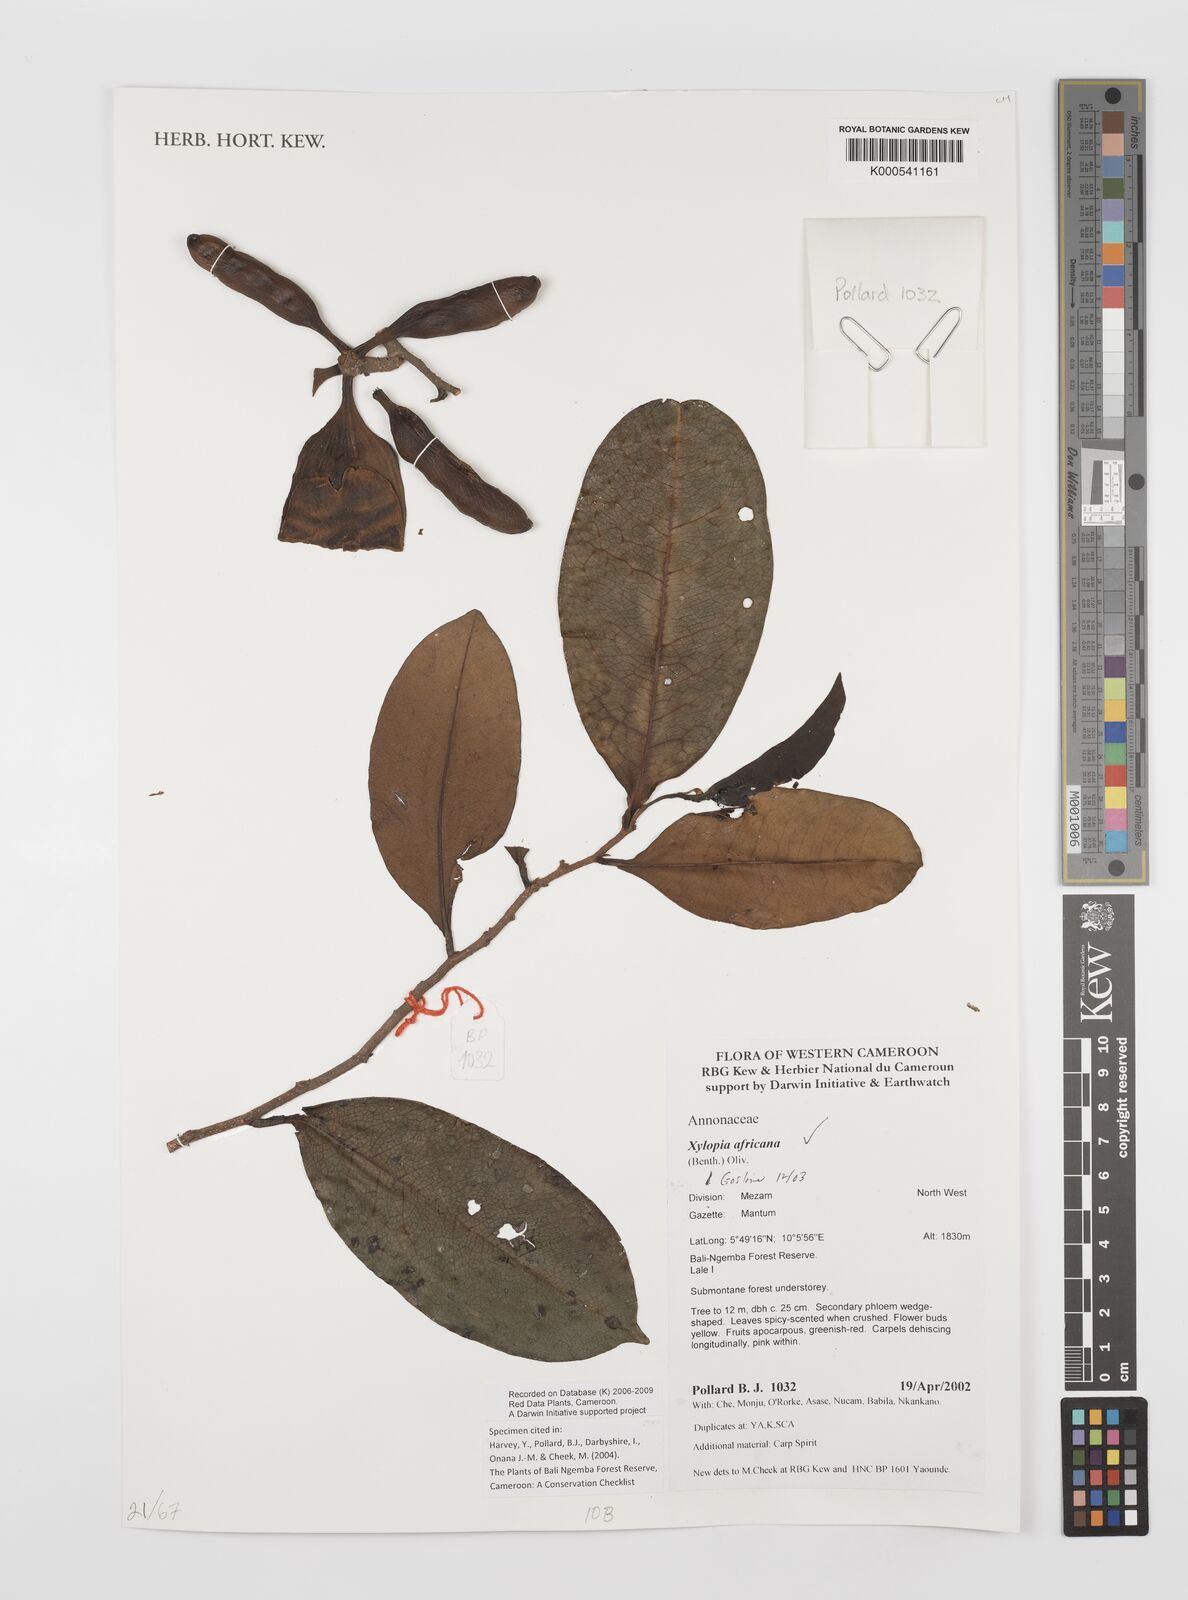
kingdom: Plantae
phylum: Tracheophyta
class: Magnoliopsida
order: Magnoliales
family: Annonaceae
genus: Xylopia
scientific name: Xylopia africana
